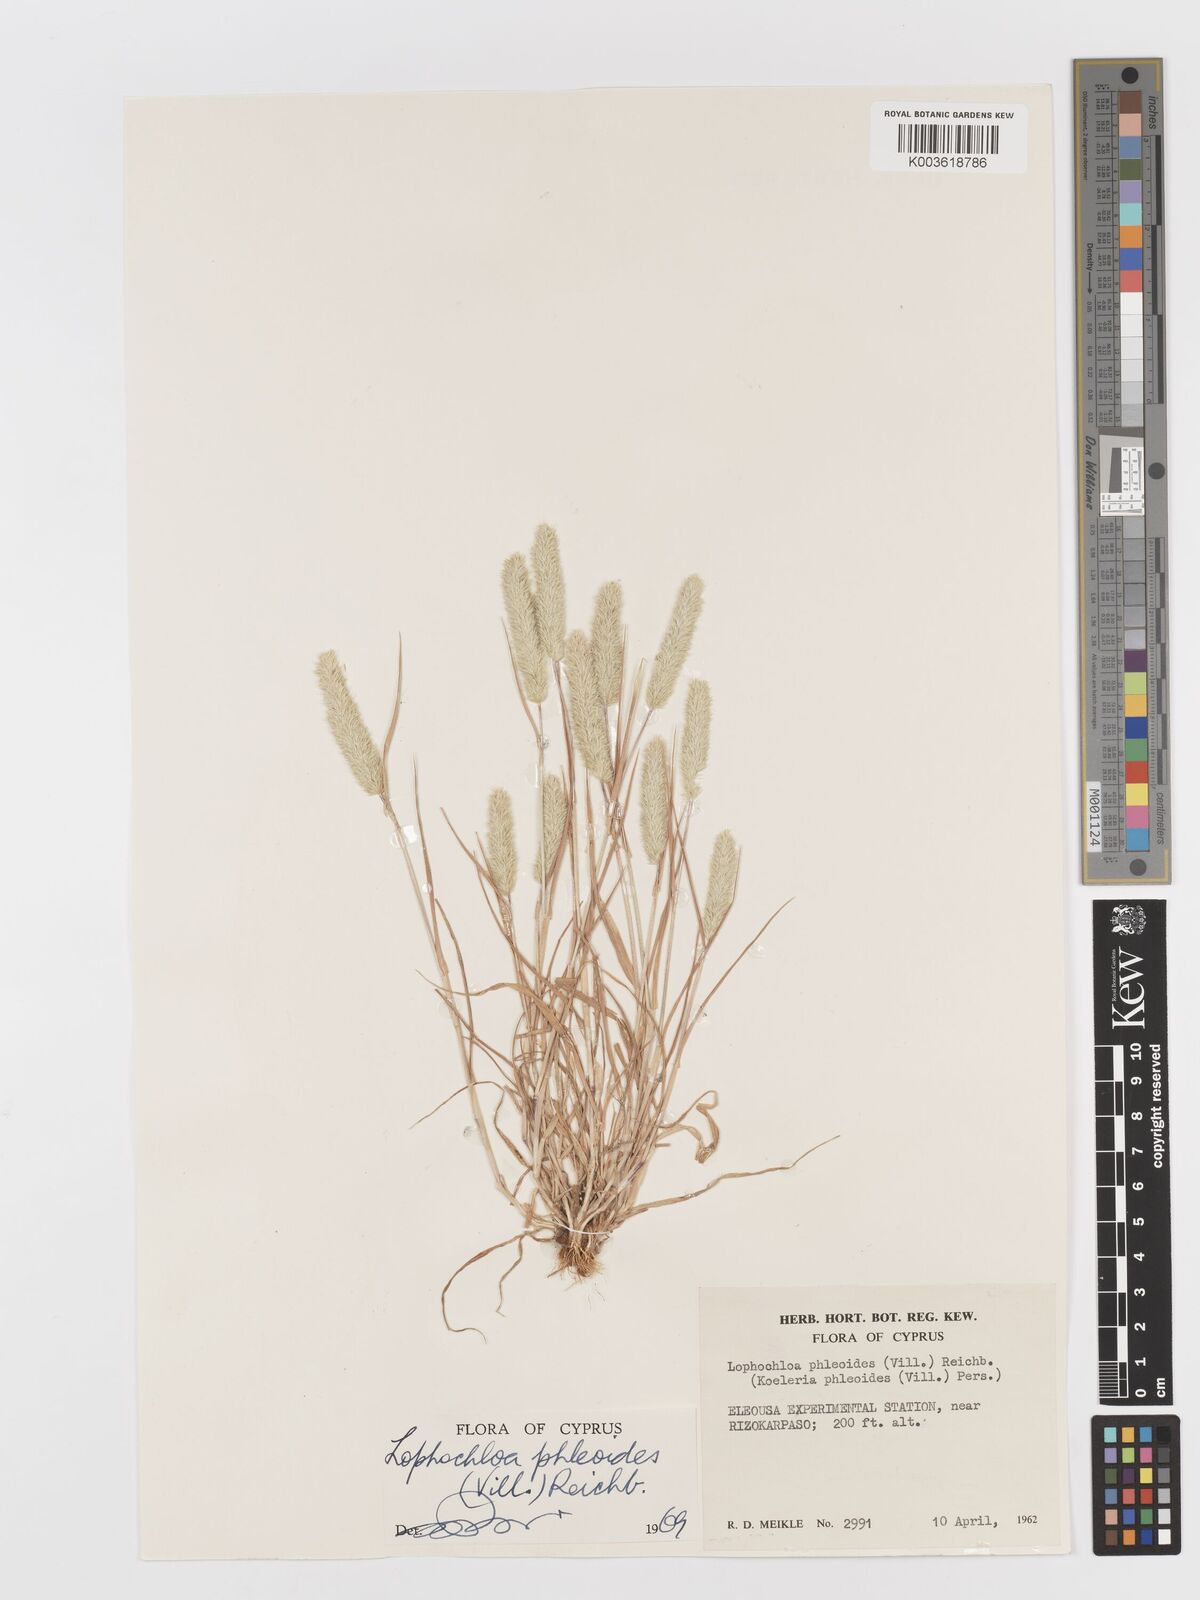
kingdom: Plantae
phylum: Tracheophyta
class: Liliopsida
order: Poales
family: Poaceae
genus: Rostraria
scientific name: Rostraria cristata
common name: Mediterranean hair-grass
